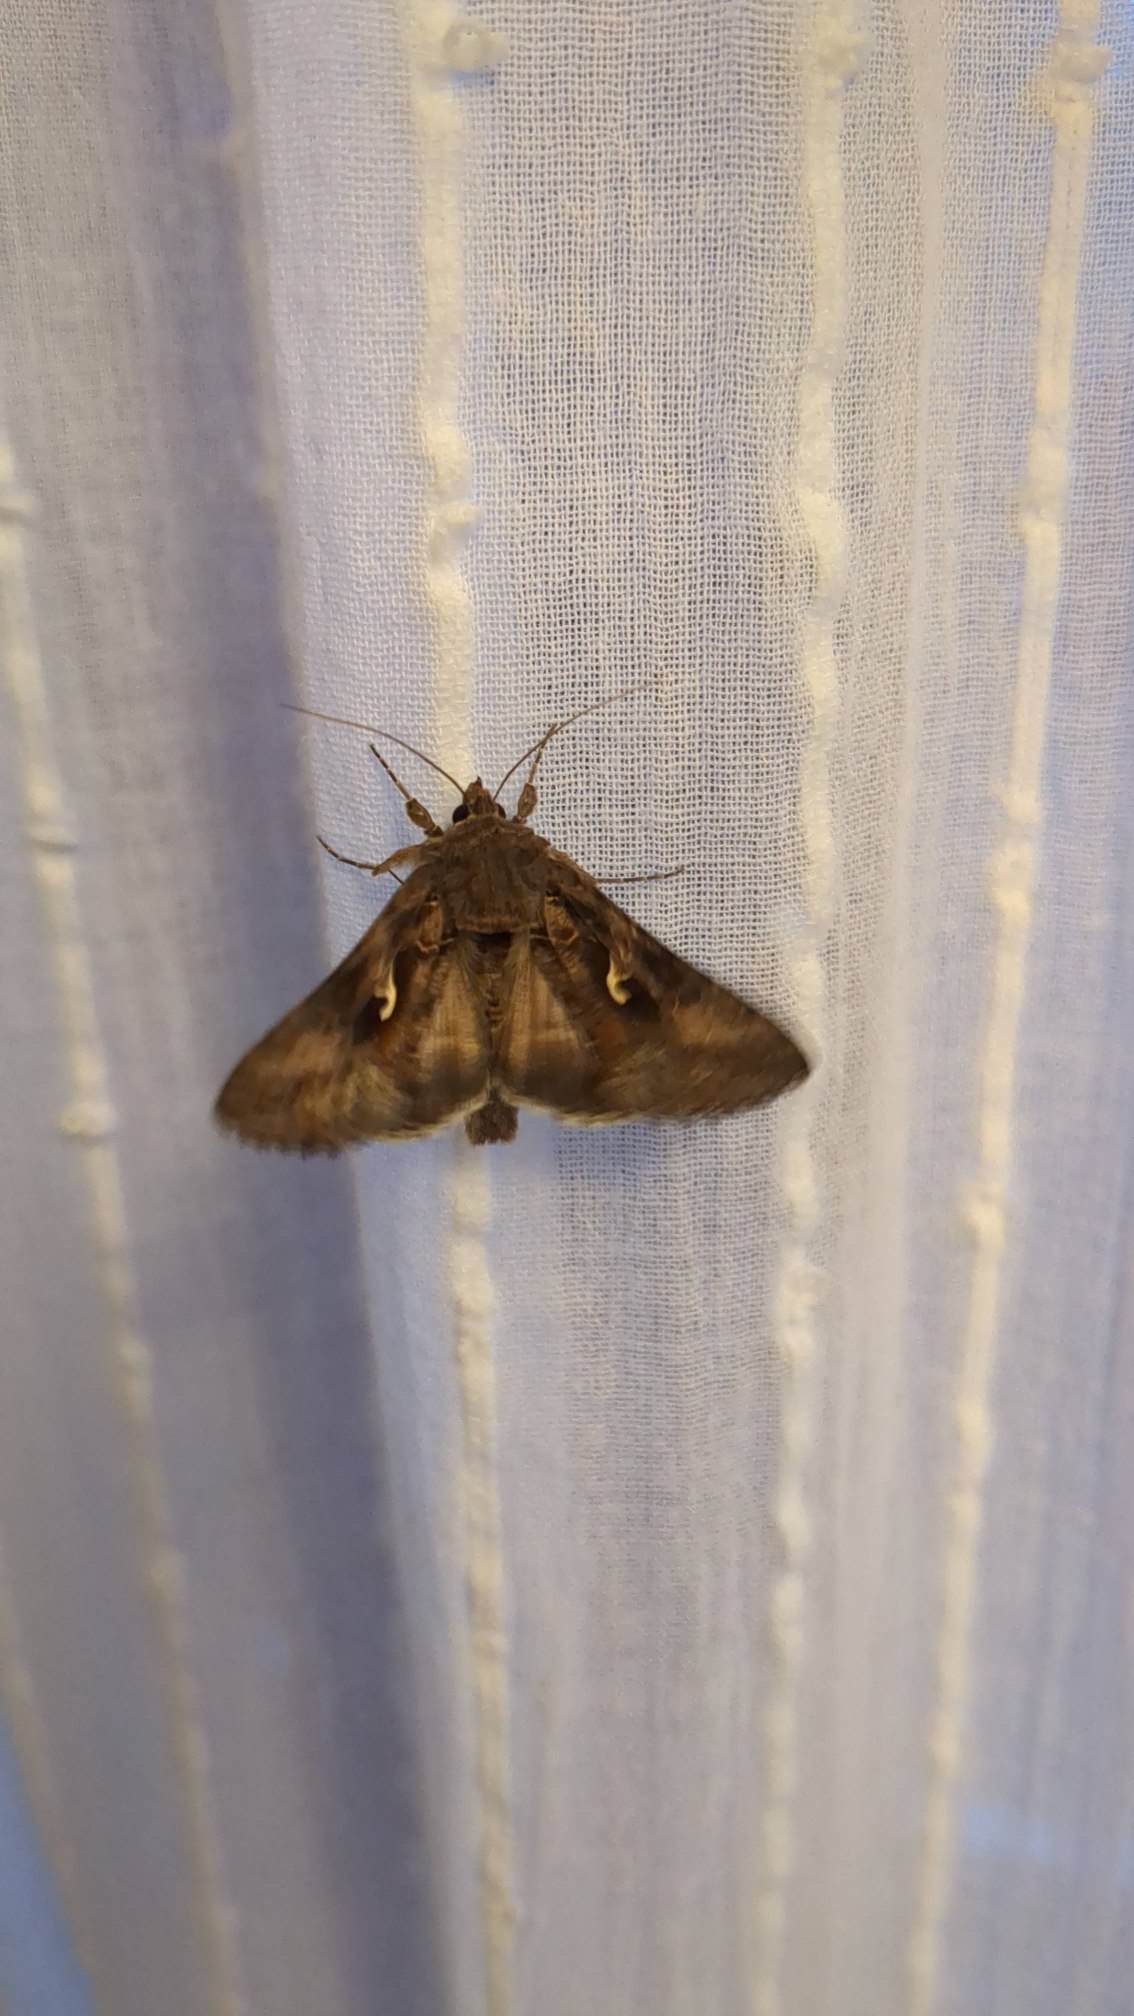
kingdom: Animalia
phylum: Arthropoda
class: Insecta
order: Lepidoptera
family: Noctuidae
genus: Autographa
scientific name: Autographa gamma
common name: Gammaugle
